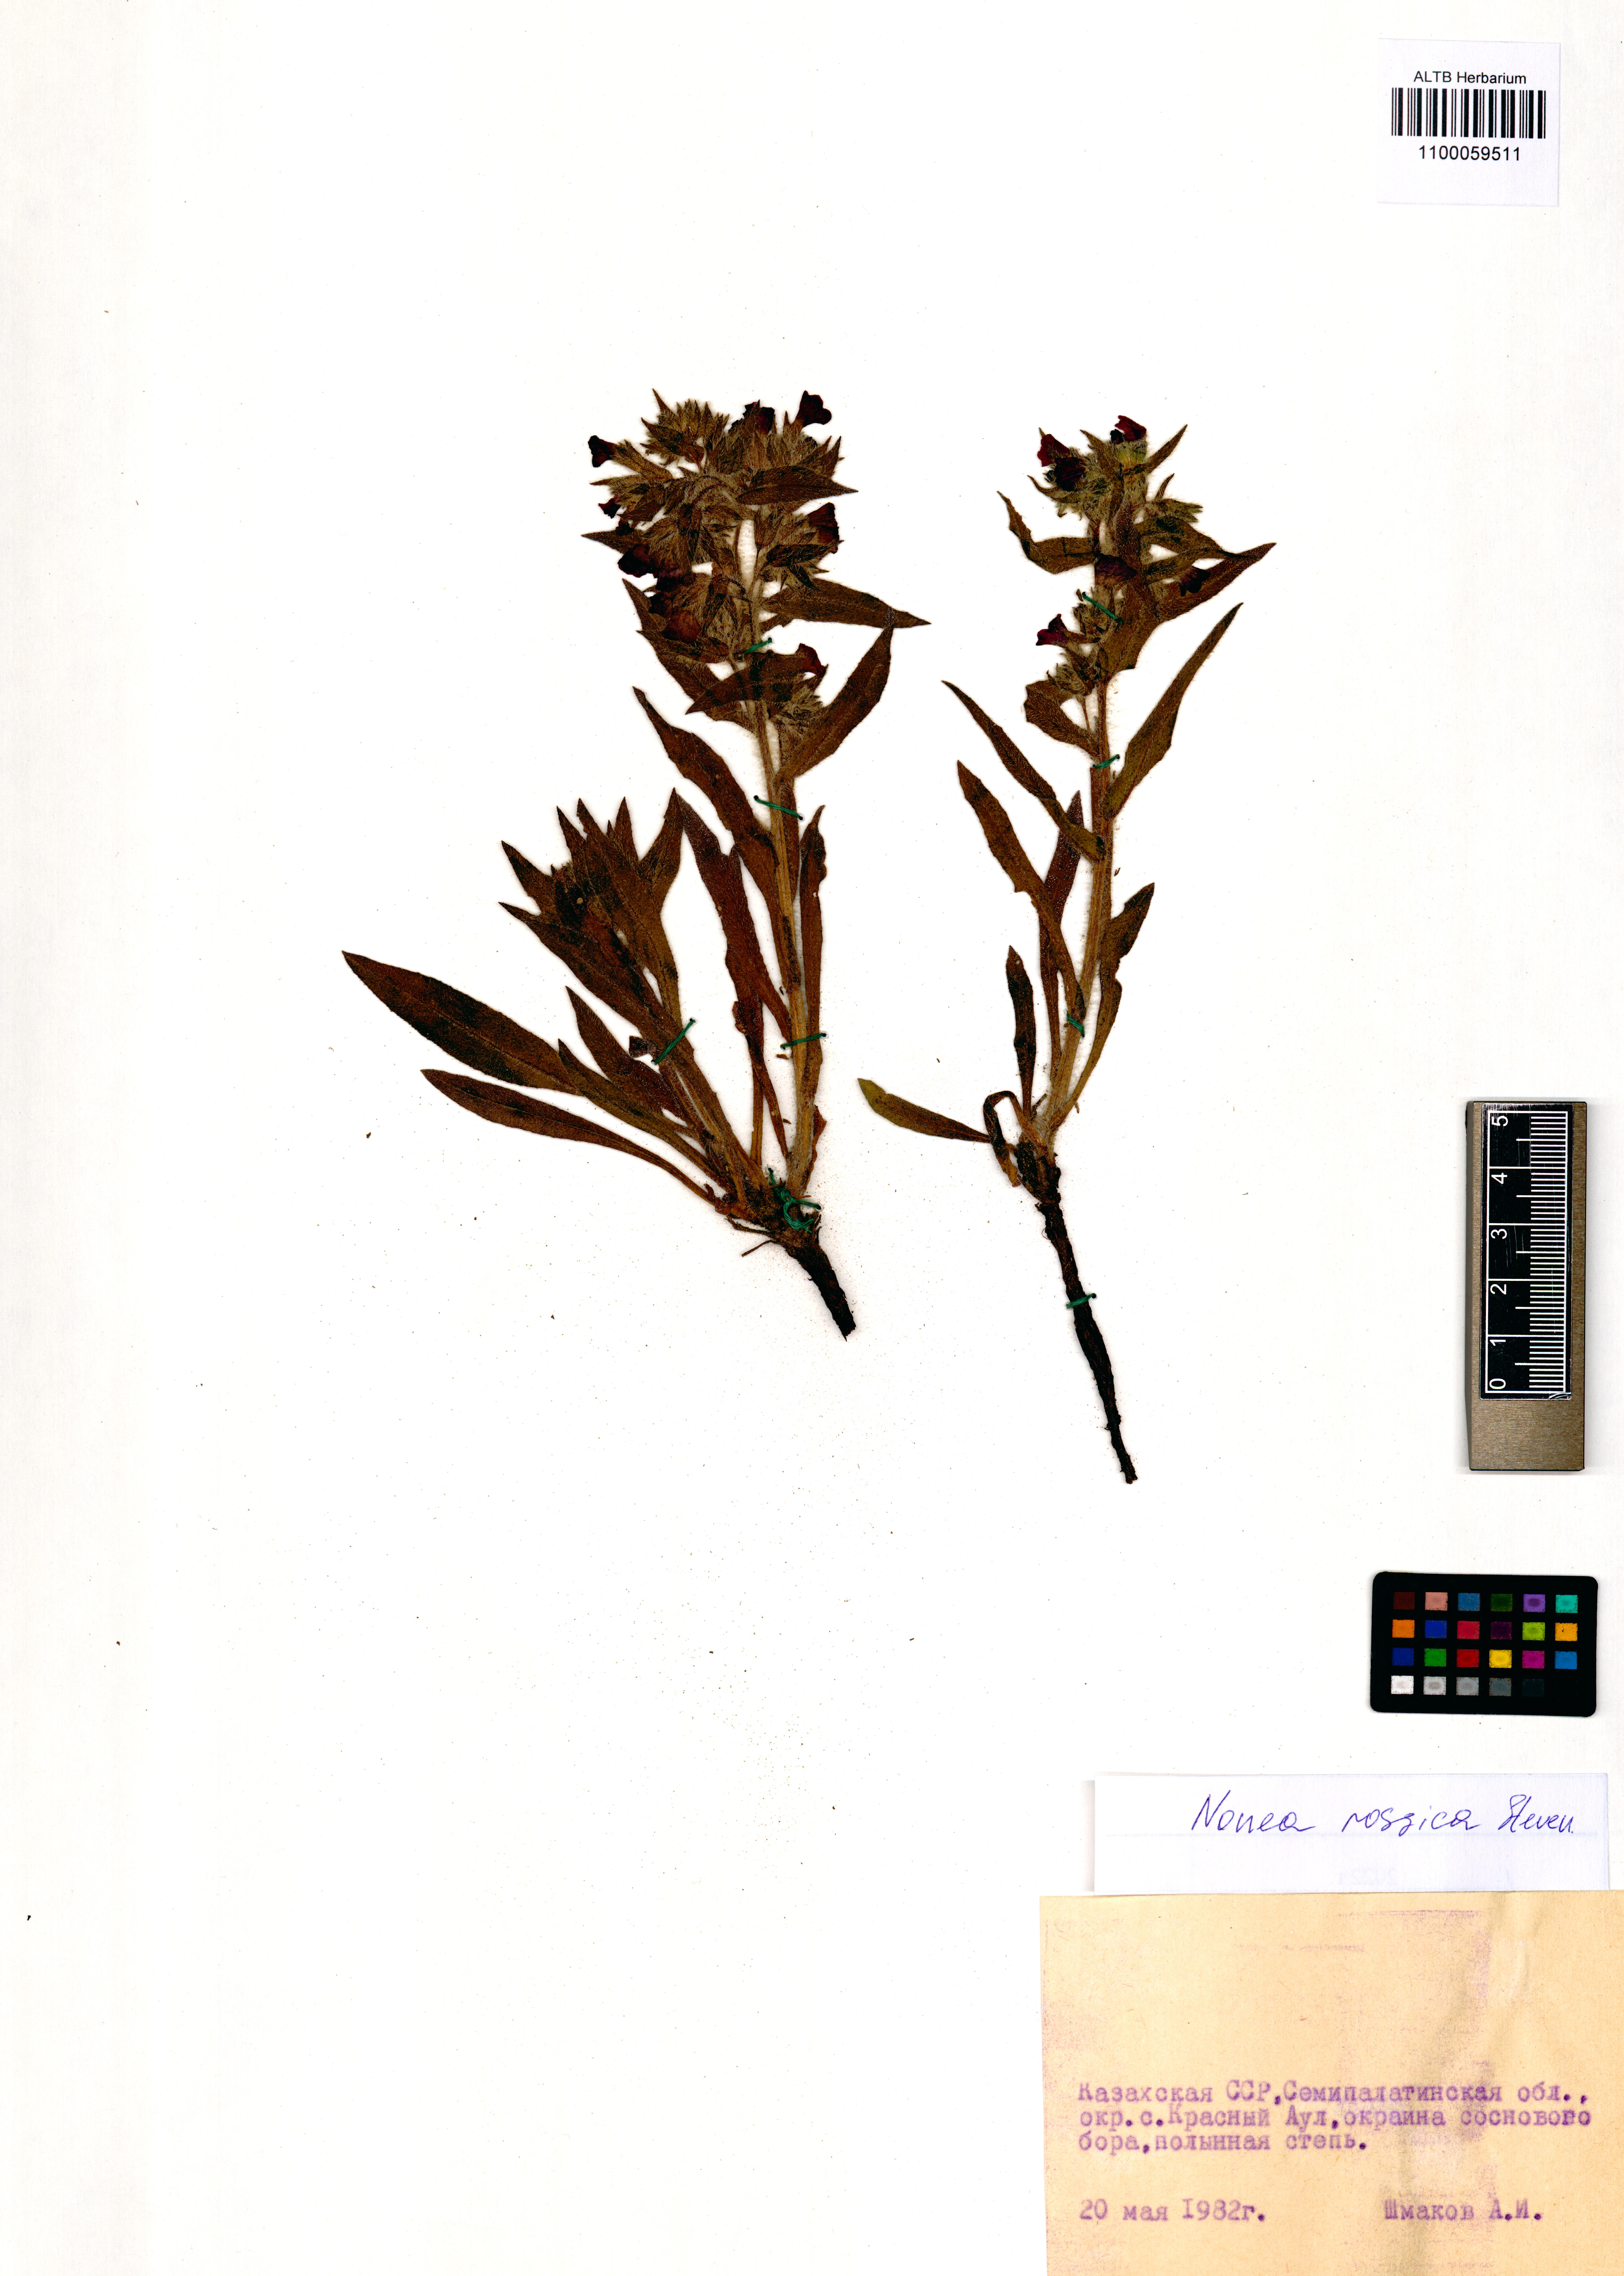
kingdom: Plantae
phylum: Tracheophyta
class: Magnoliopsida
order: Boraginales
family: Boraginaceae
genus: Nonea
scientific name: Nonea pulla
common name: Brown nonea
